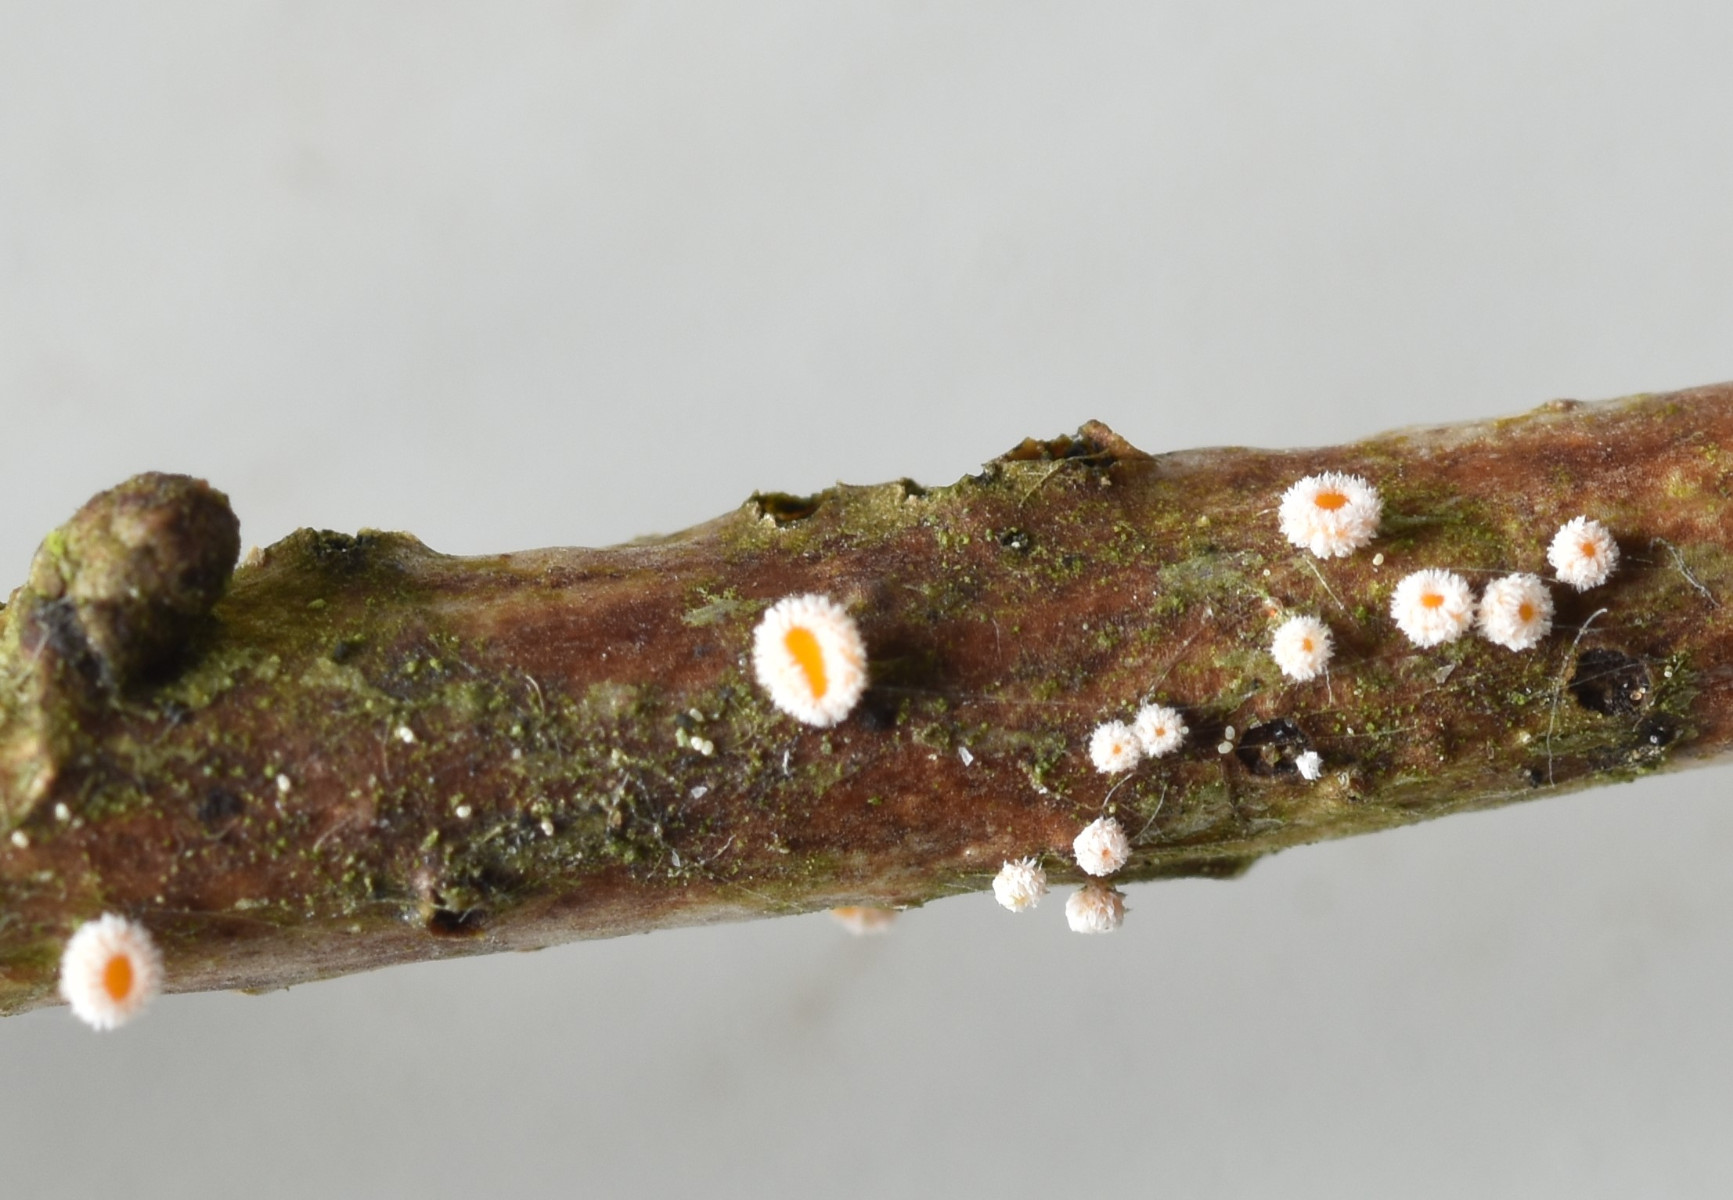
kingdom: Fungi
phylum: Ascomycota
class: Leotiomycetes
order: Helotiales
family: Lachnaceae
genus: Capitotricha
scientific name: Capitotricha bicolor
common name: prægtig frynseskive
